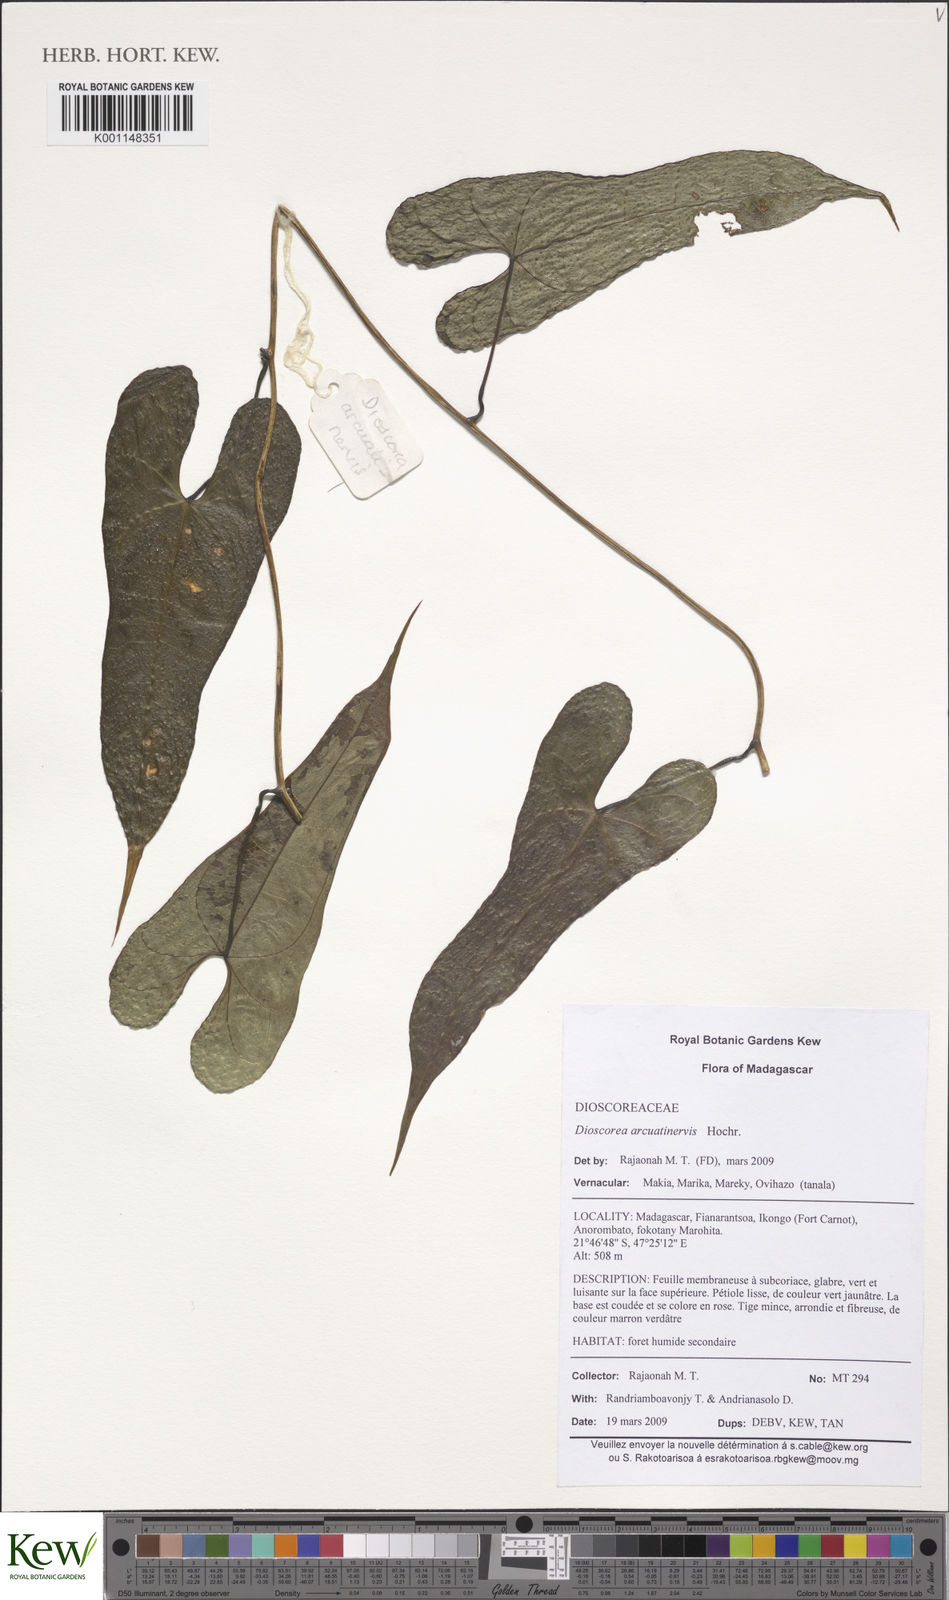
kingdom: Plantae
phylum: Tracheophyta
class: Liliopsida
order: Dioscoreales
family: Dioscoreaceae
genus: Dioscorea
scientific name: Dioscorea arcuatinervis
